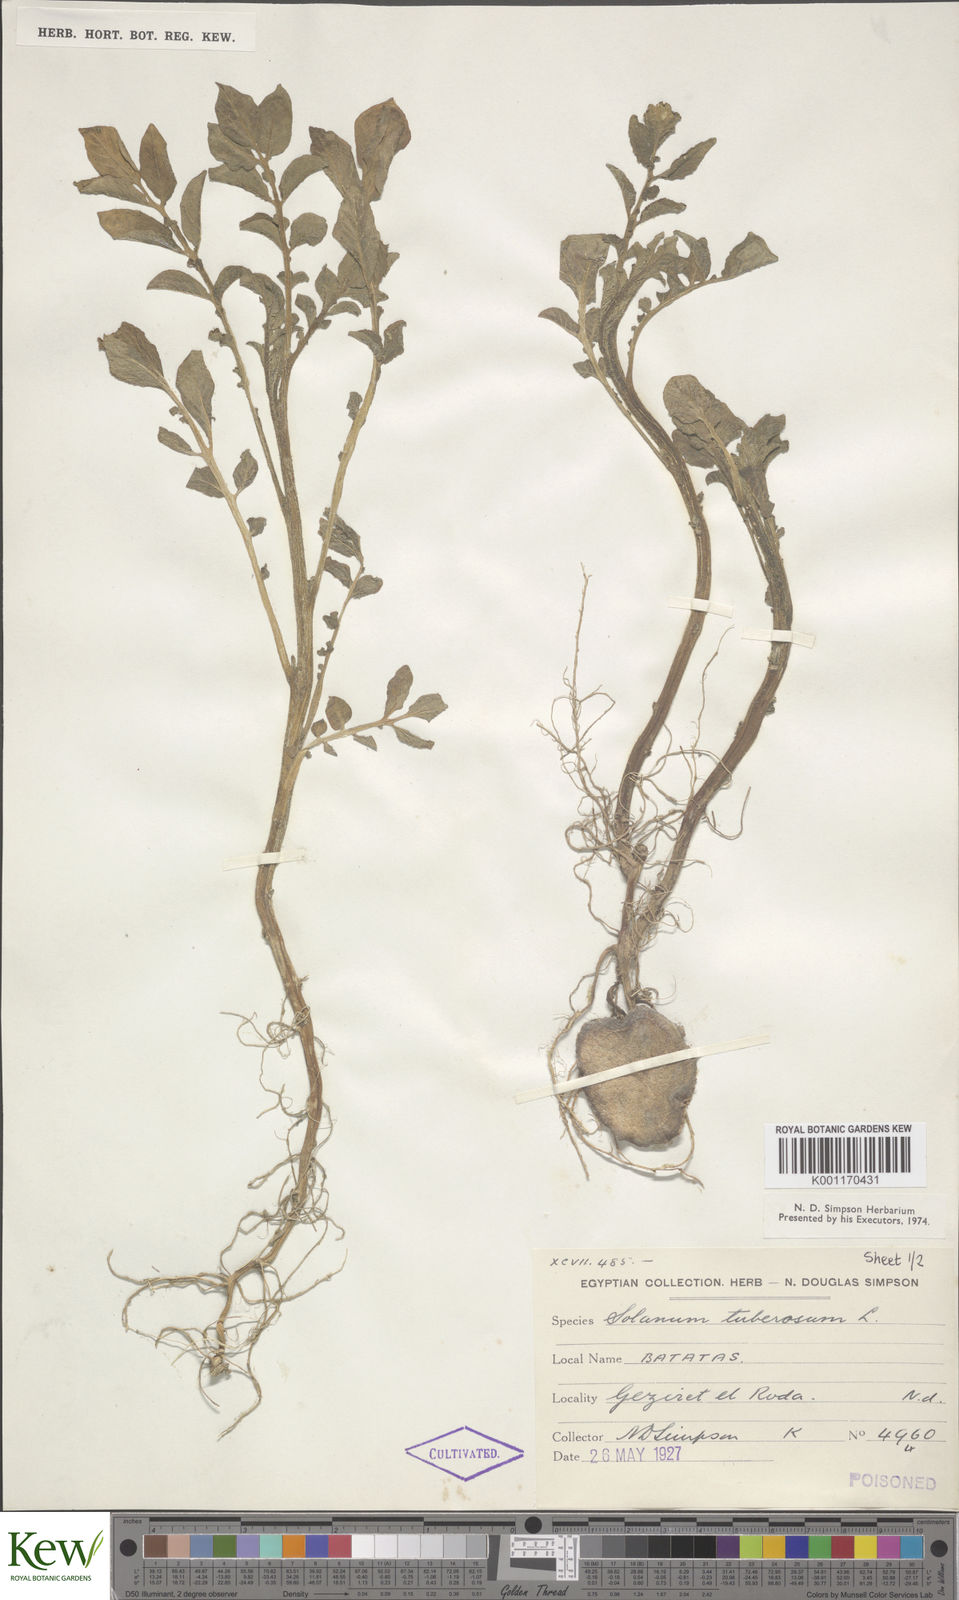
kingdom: Plantae
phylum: Tracheophyta
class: Magnoliopsida
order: Solanales
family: Solanaceae
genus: Solanum
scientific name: Solanum tuberosum
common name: Potato
